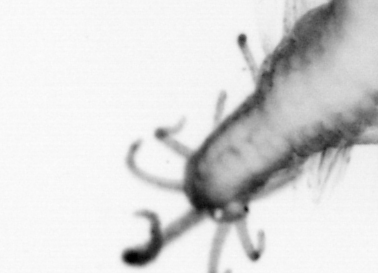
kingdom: Animalia
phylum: Annelida
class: Polychaeta
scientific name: Polychaeta
